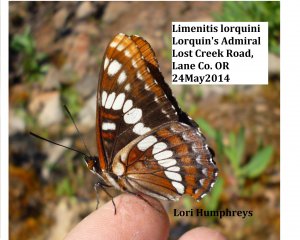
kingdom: Animalia
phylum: Arthropoda
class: Insecta
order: Lepidoptera
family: Nymphalidae
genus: Limenitis
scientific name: Limenitis lorquini
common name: Lorquin's Admiral
